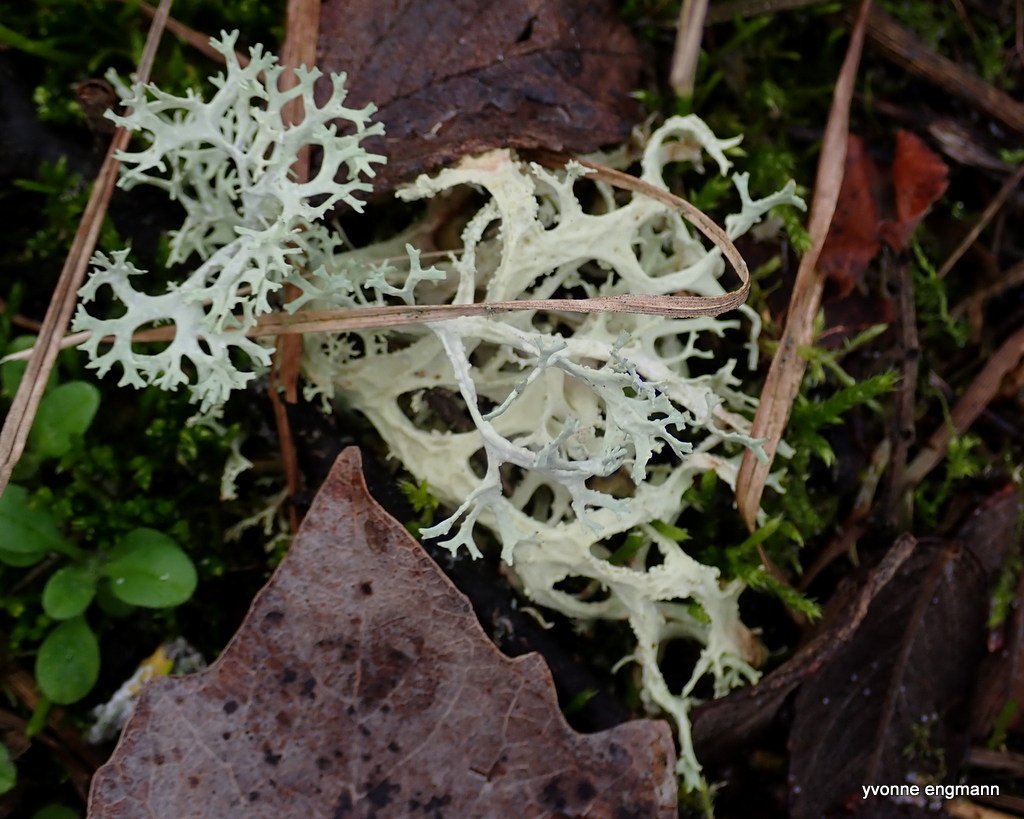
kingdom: Fungi
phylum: Ascomycota
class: Lecanoromycetes
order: Lecanorales
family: Parmeliaceae
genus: Evernia
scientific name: Evernia prunastri
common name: almindelig slåenlav
